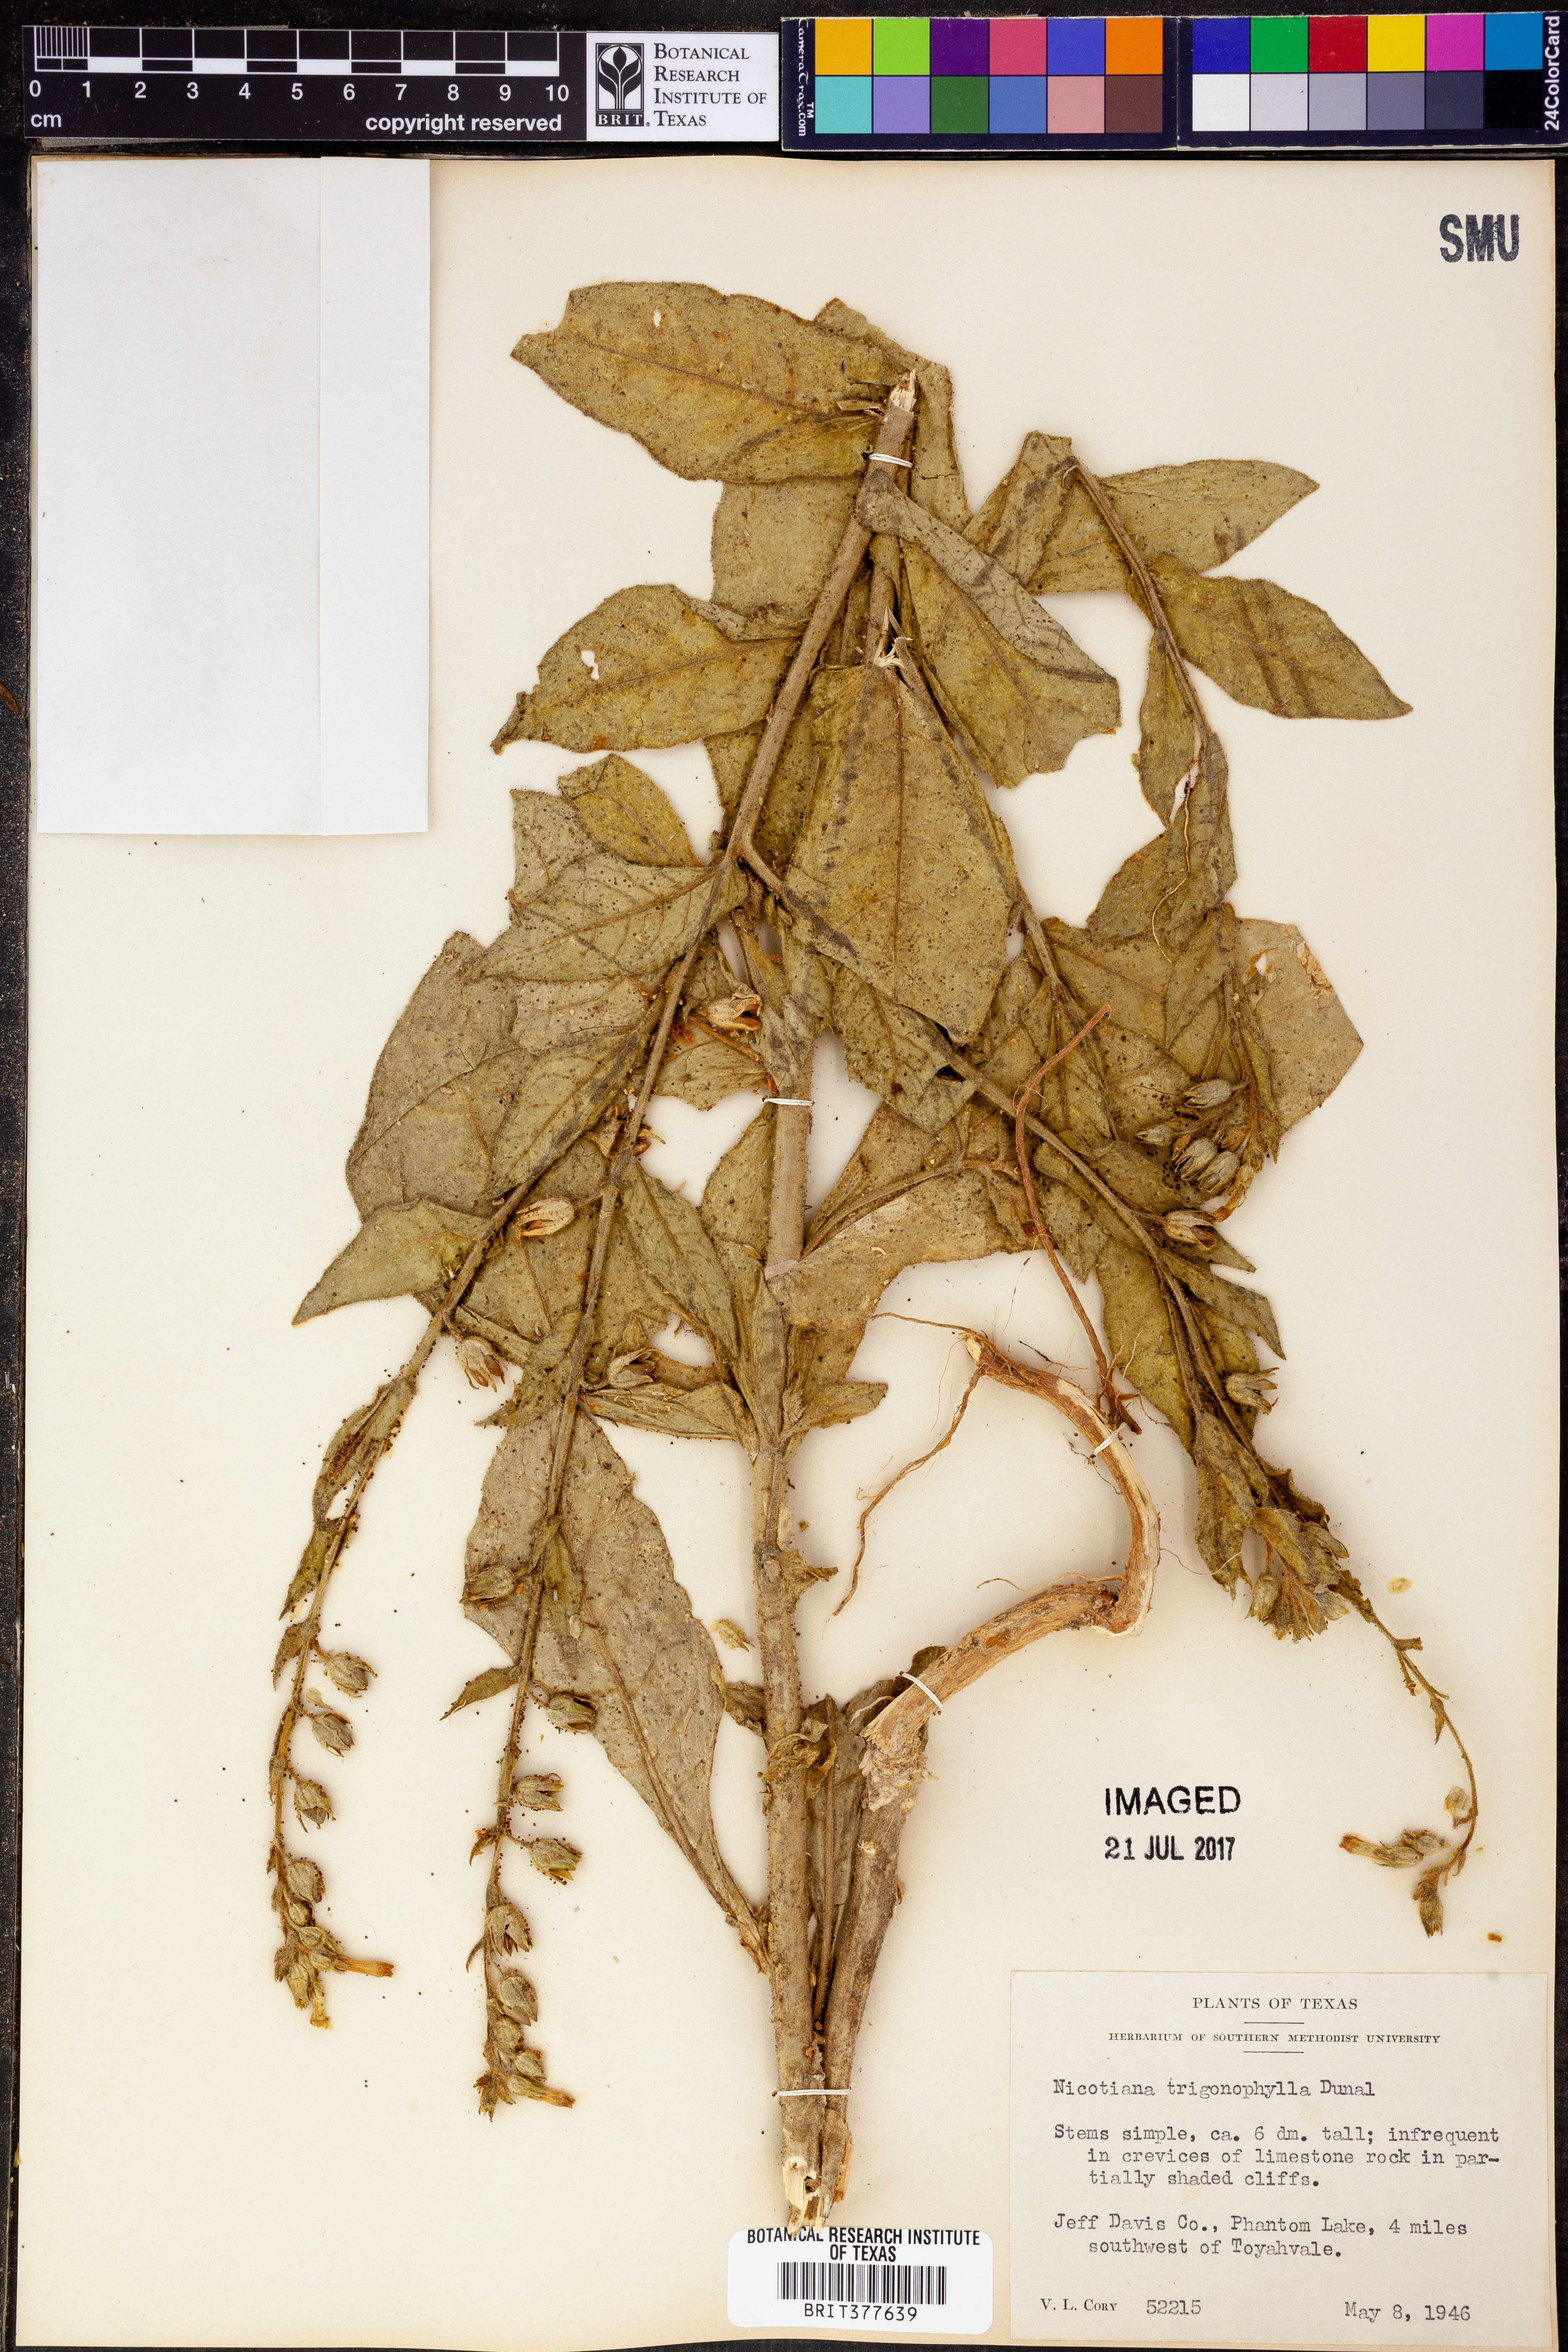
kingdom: Plantae
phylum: Tracheophyta
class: Magnoliopsida
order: Solanales
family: Solanaceae
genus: Nicotiana
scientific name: Nicotiana obtusifolia
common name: Desert tobacco
